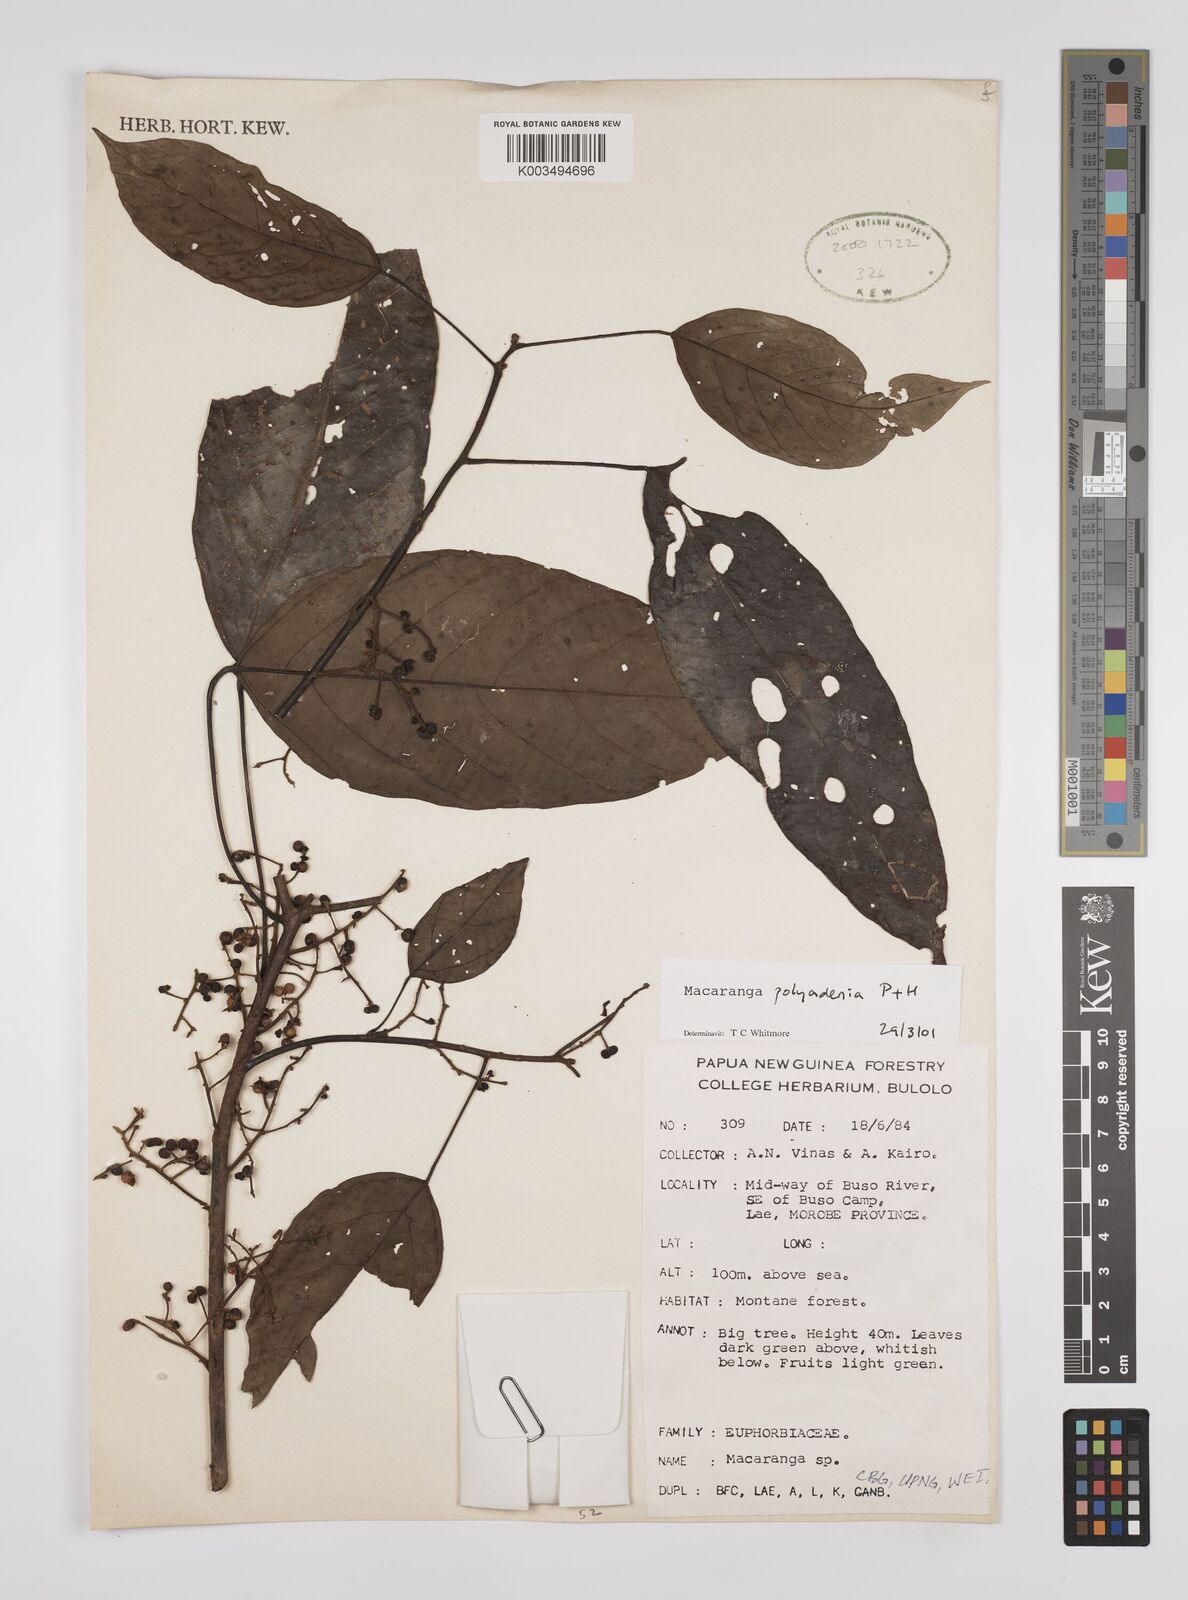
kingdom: Plantae
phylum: Tracheophyta
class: Magnoliopsida
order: Malpighiales
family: Euphorbiaceae
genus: Macaranga
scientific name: Macaranga polyadenia
